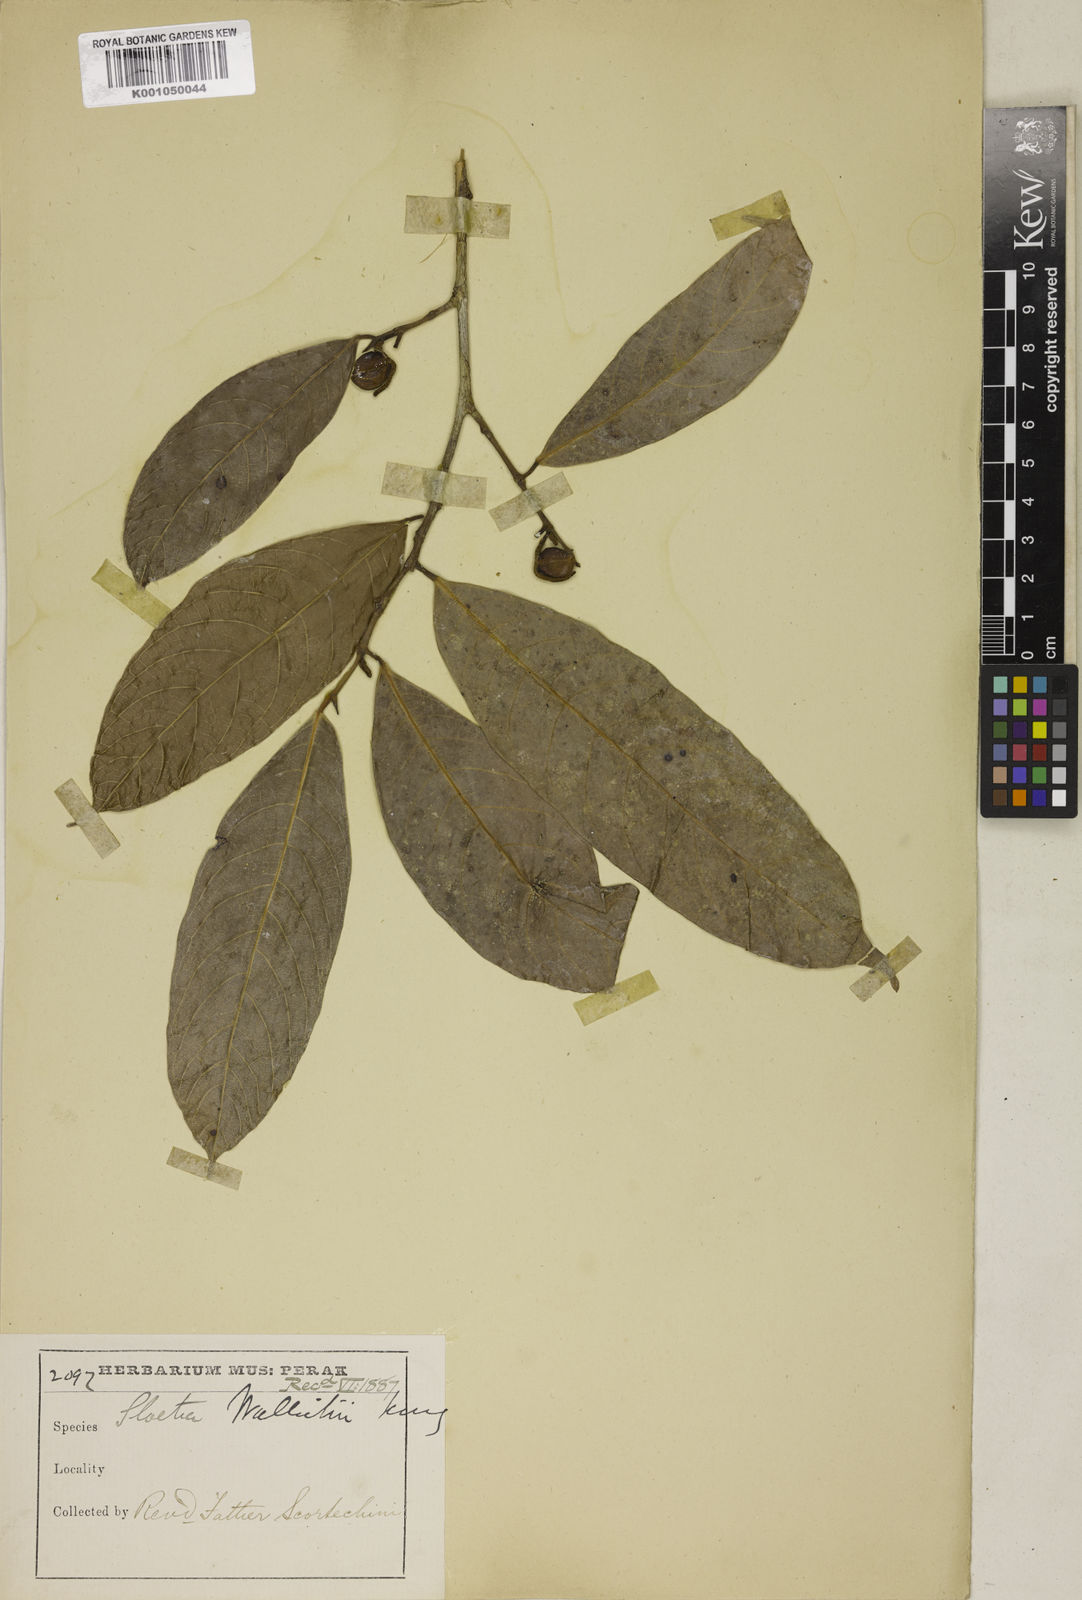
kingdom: Plantae
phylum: Tracheophyta
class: Magnoliopsida
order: Rosales
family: Moraceae
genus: Sloetia
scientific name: Sloetia elongata
